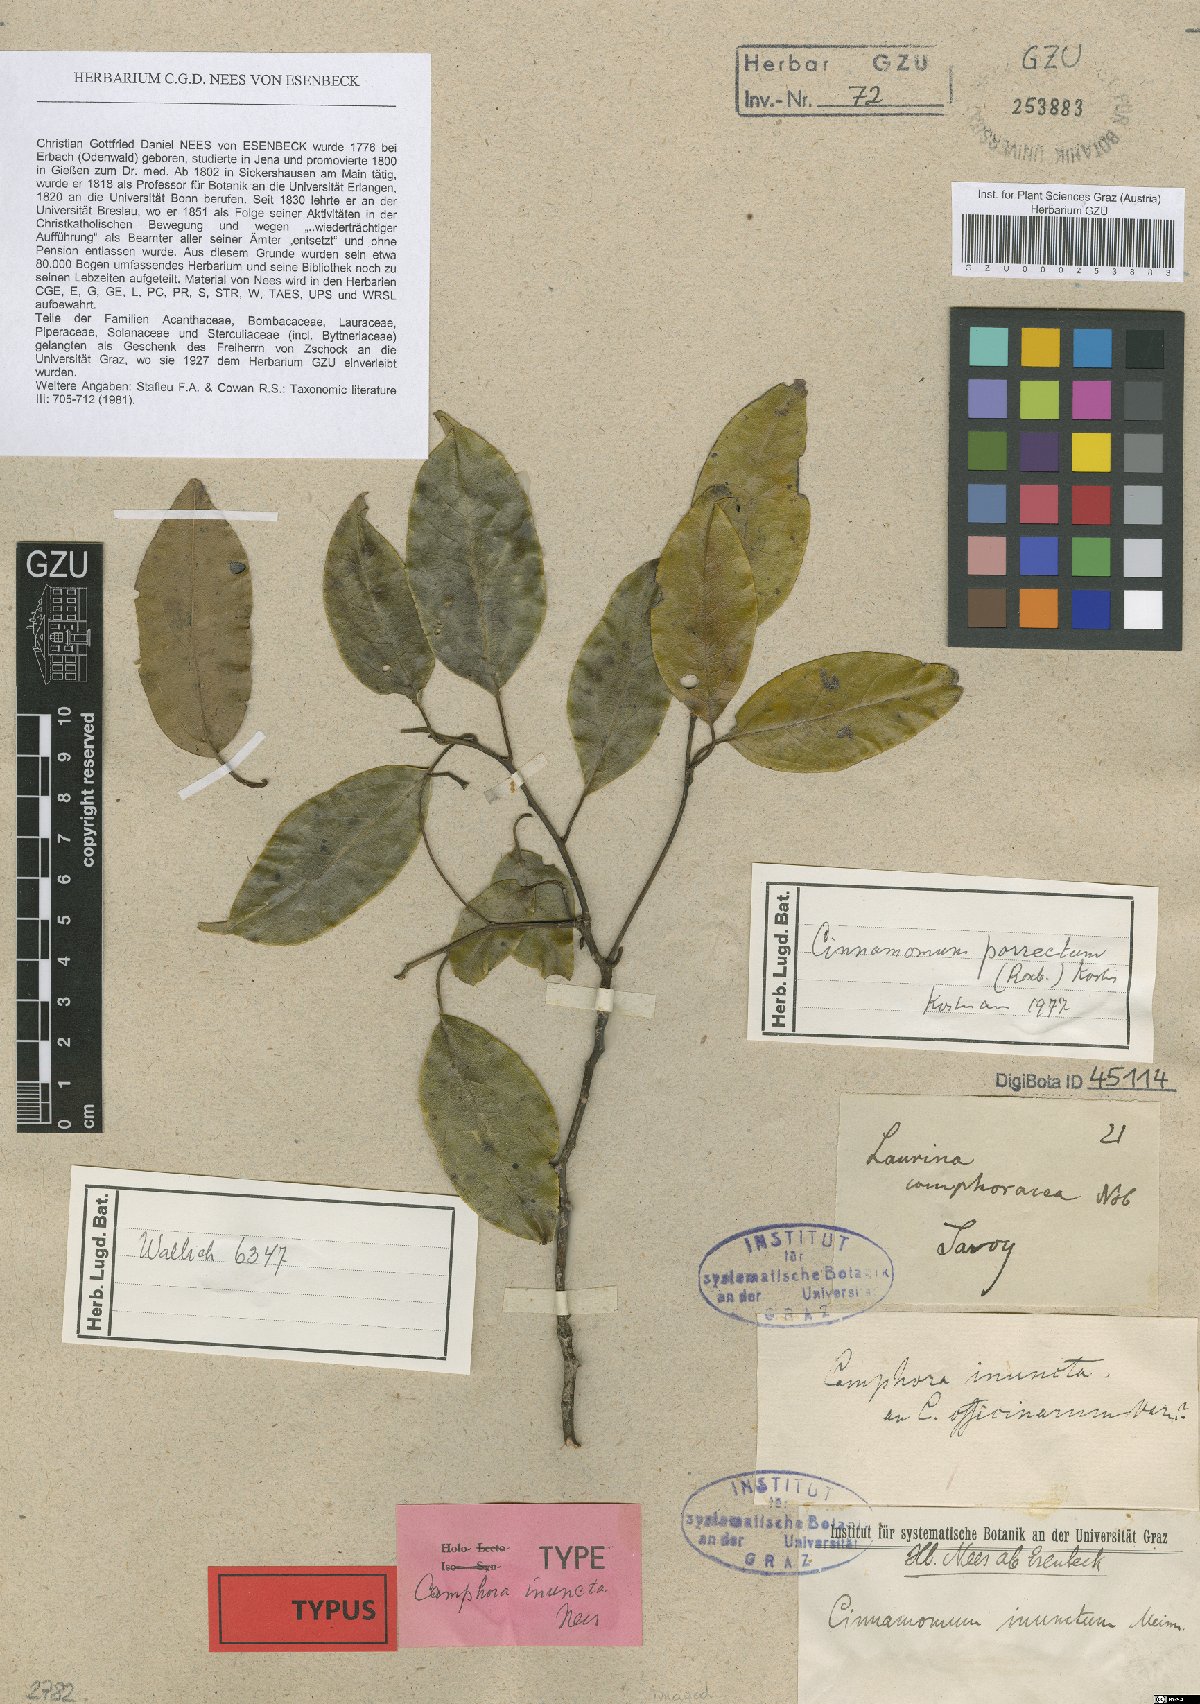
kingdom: Plantae
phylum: Tracheophyta
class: Magnoliopsida
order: Laurales
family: Lauraceae
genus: Cinnamomum
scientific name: Cinnamomum parthenoxylon
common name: Martaban camphor wood
